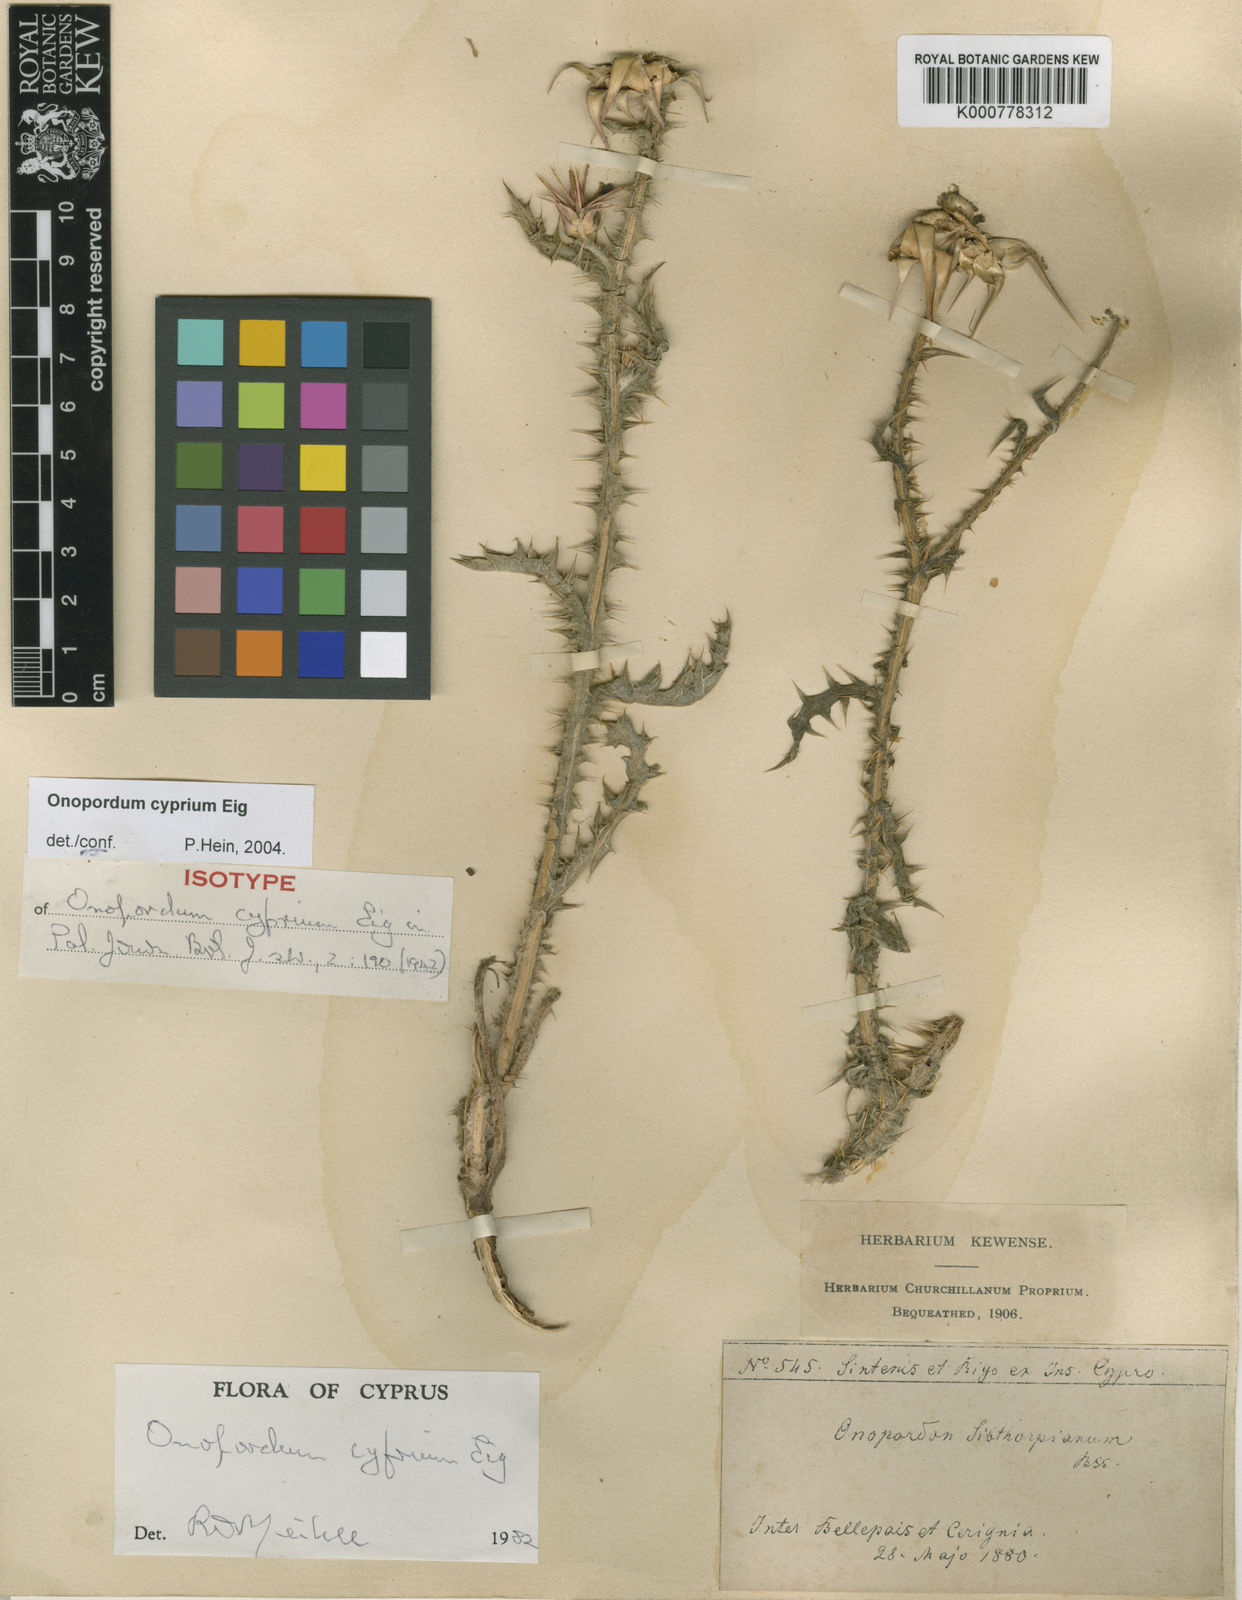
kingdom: Plantae
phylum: Tracheophyta
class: Magnoliopsida
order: Asterales
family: Asteraceae
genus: Onopordum
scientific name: Onopordum cyprium
